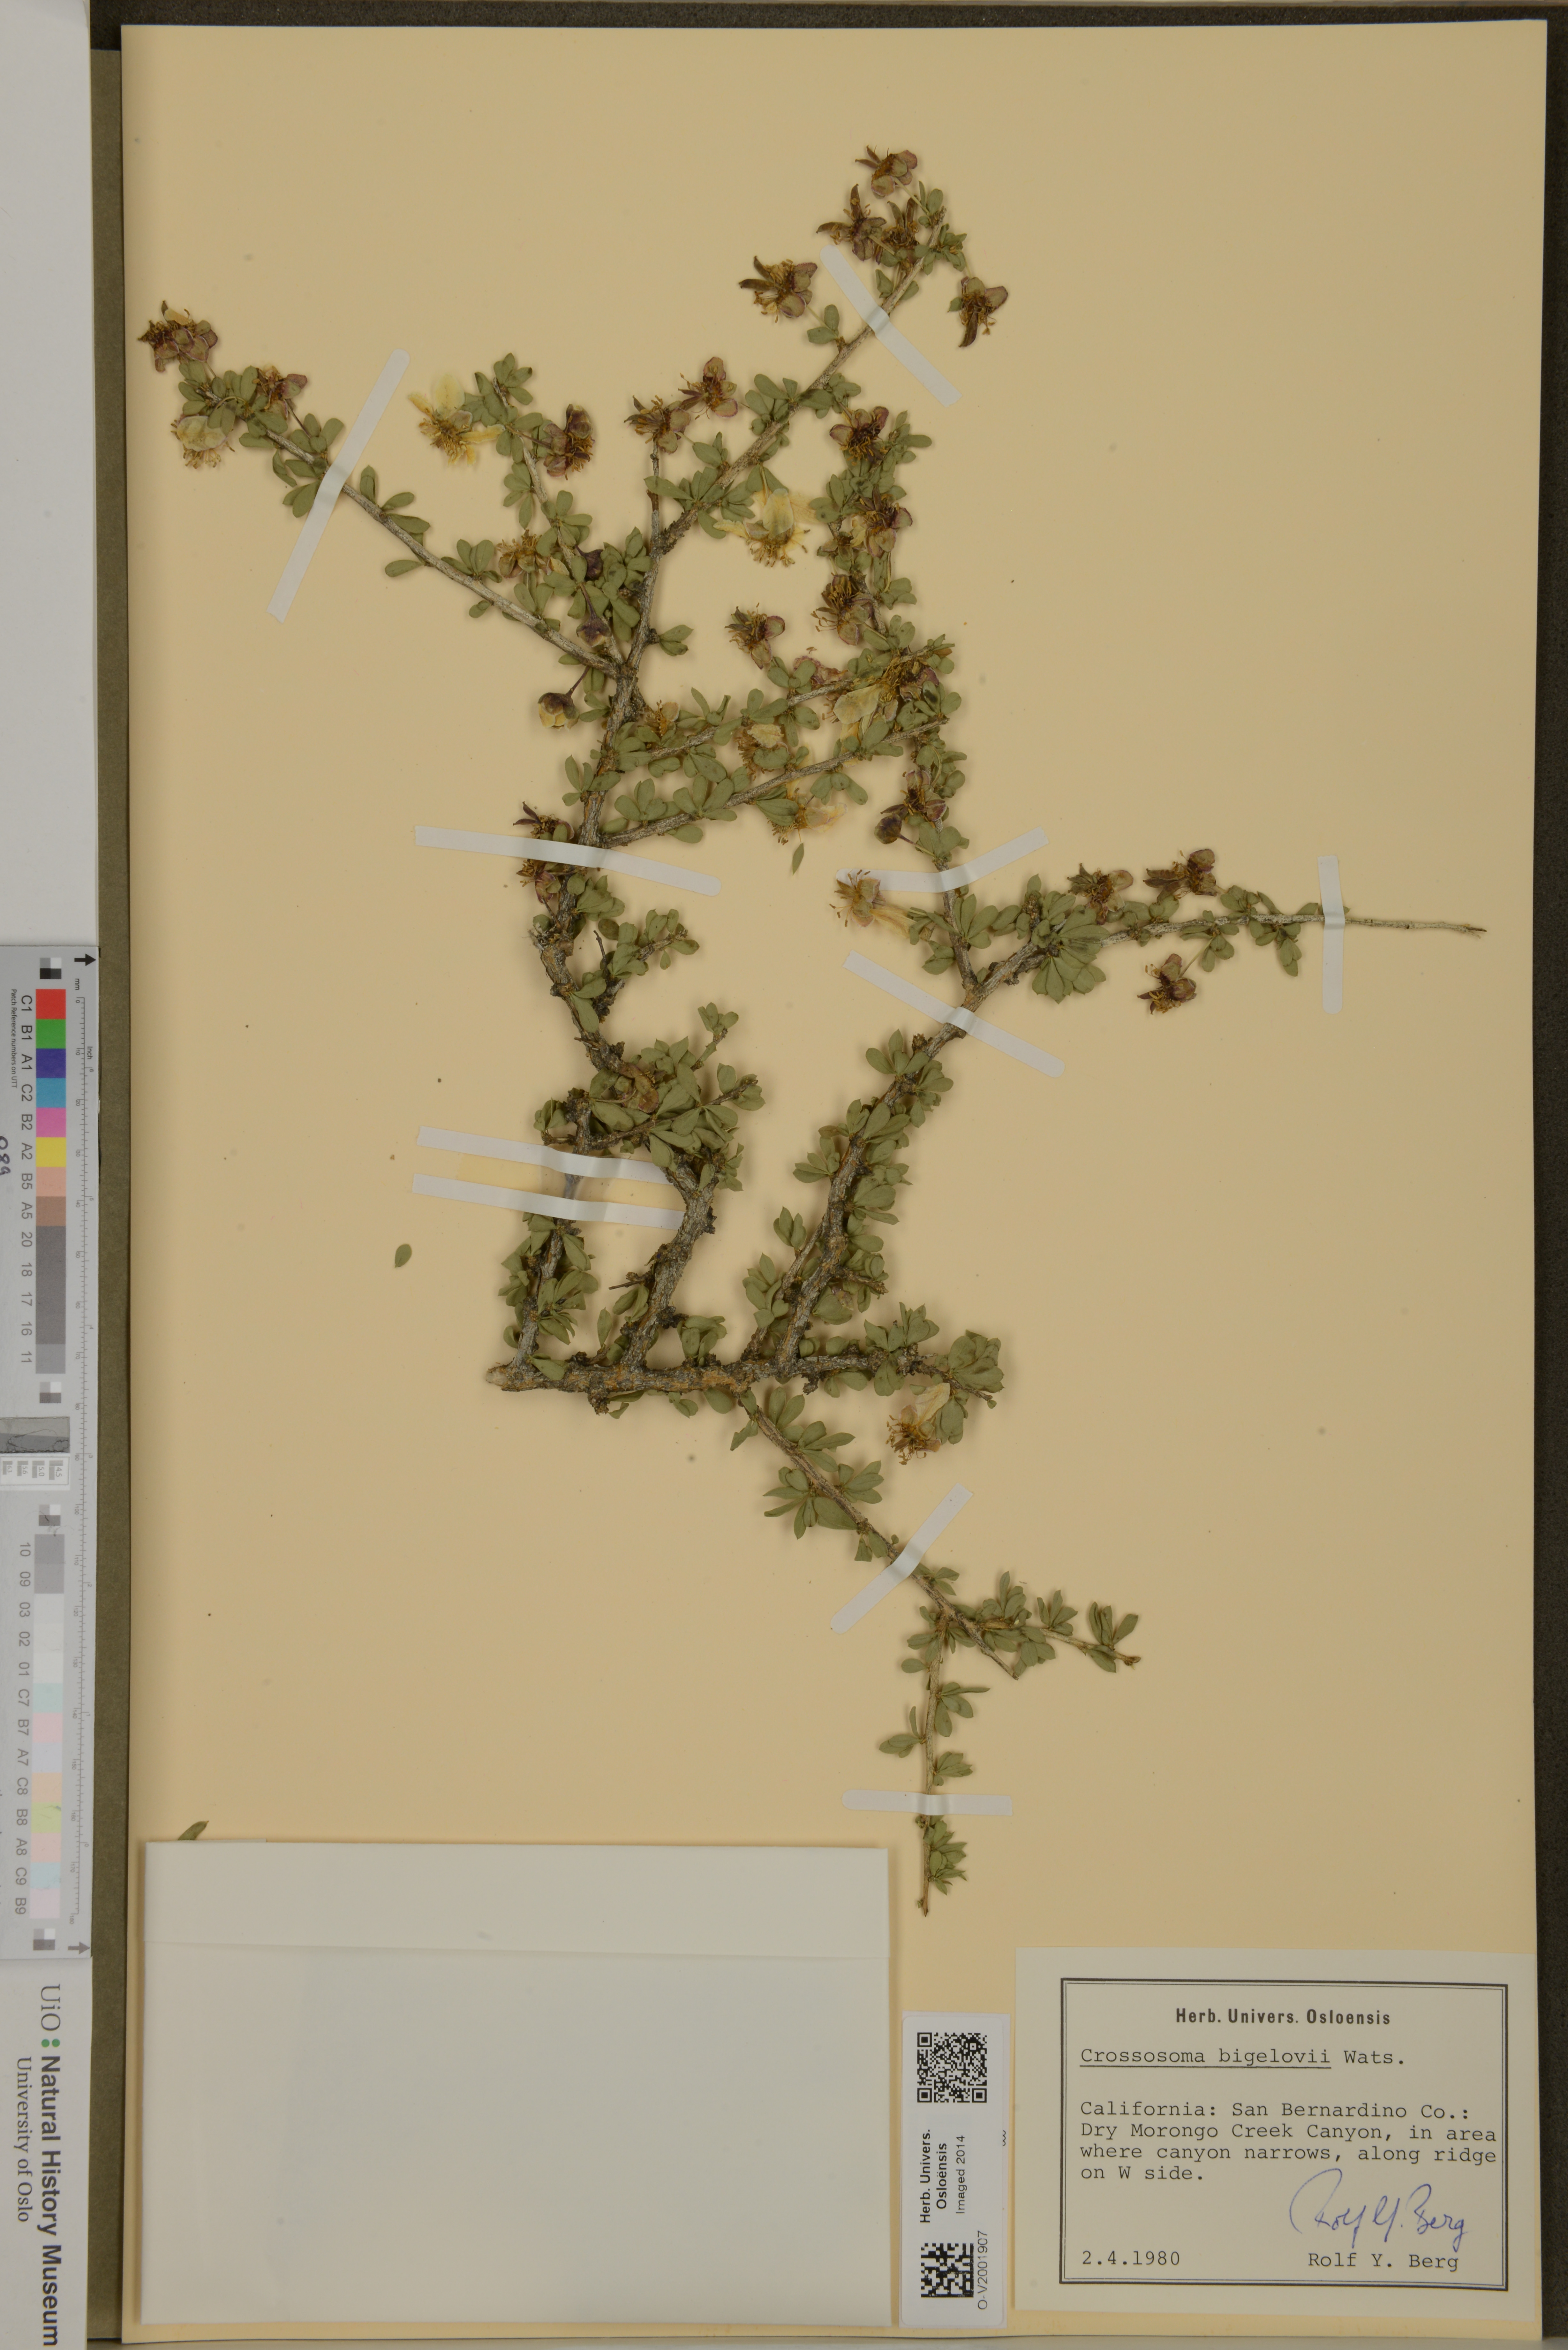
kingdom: Plantae
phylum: Tracheophyta
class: Magnoliopsida
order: Crossosomatales
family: Crossosomataceae
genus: Crossosoma
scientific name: Crossosoma bigelovii
